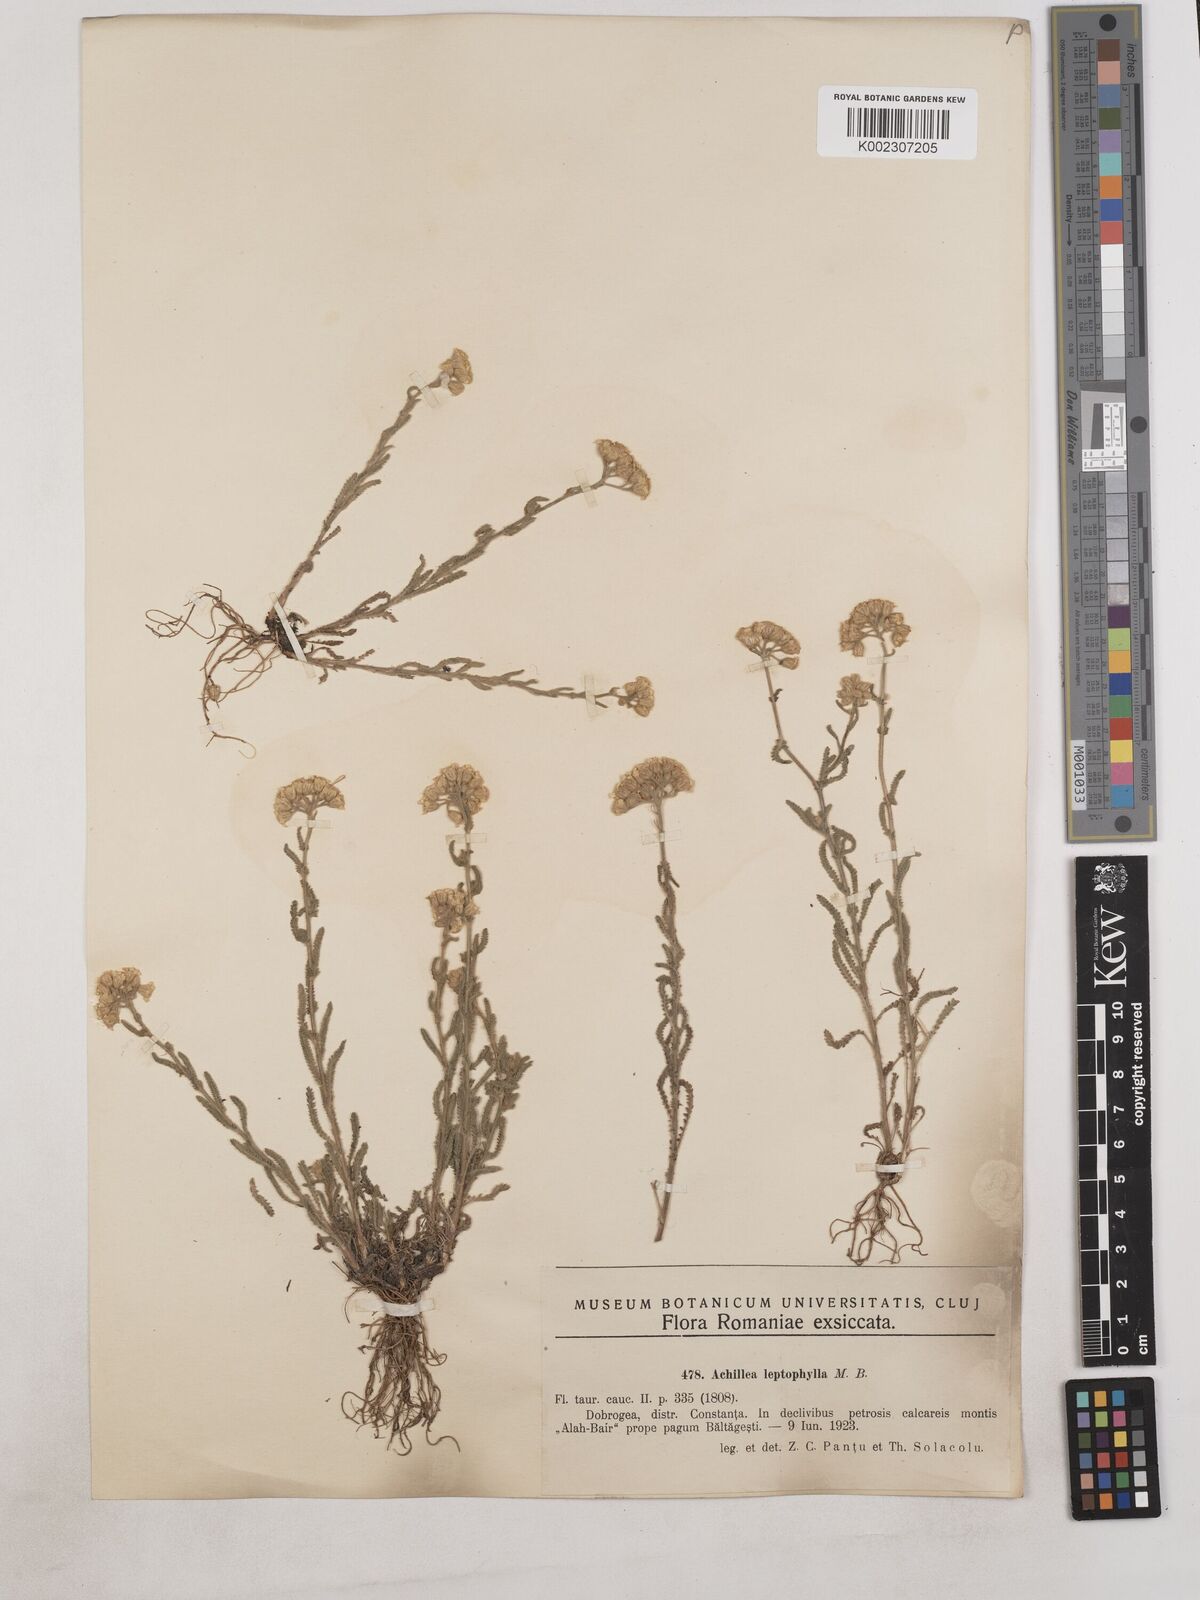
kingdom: Plantae
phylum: Tracheophyta
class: Magnoliopsida
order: Asterales
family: Asteraceae
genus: Achillea
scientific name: Achillea leptophylla
